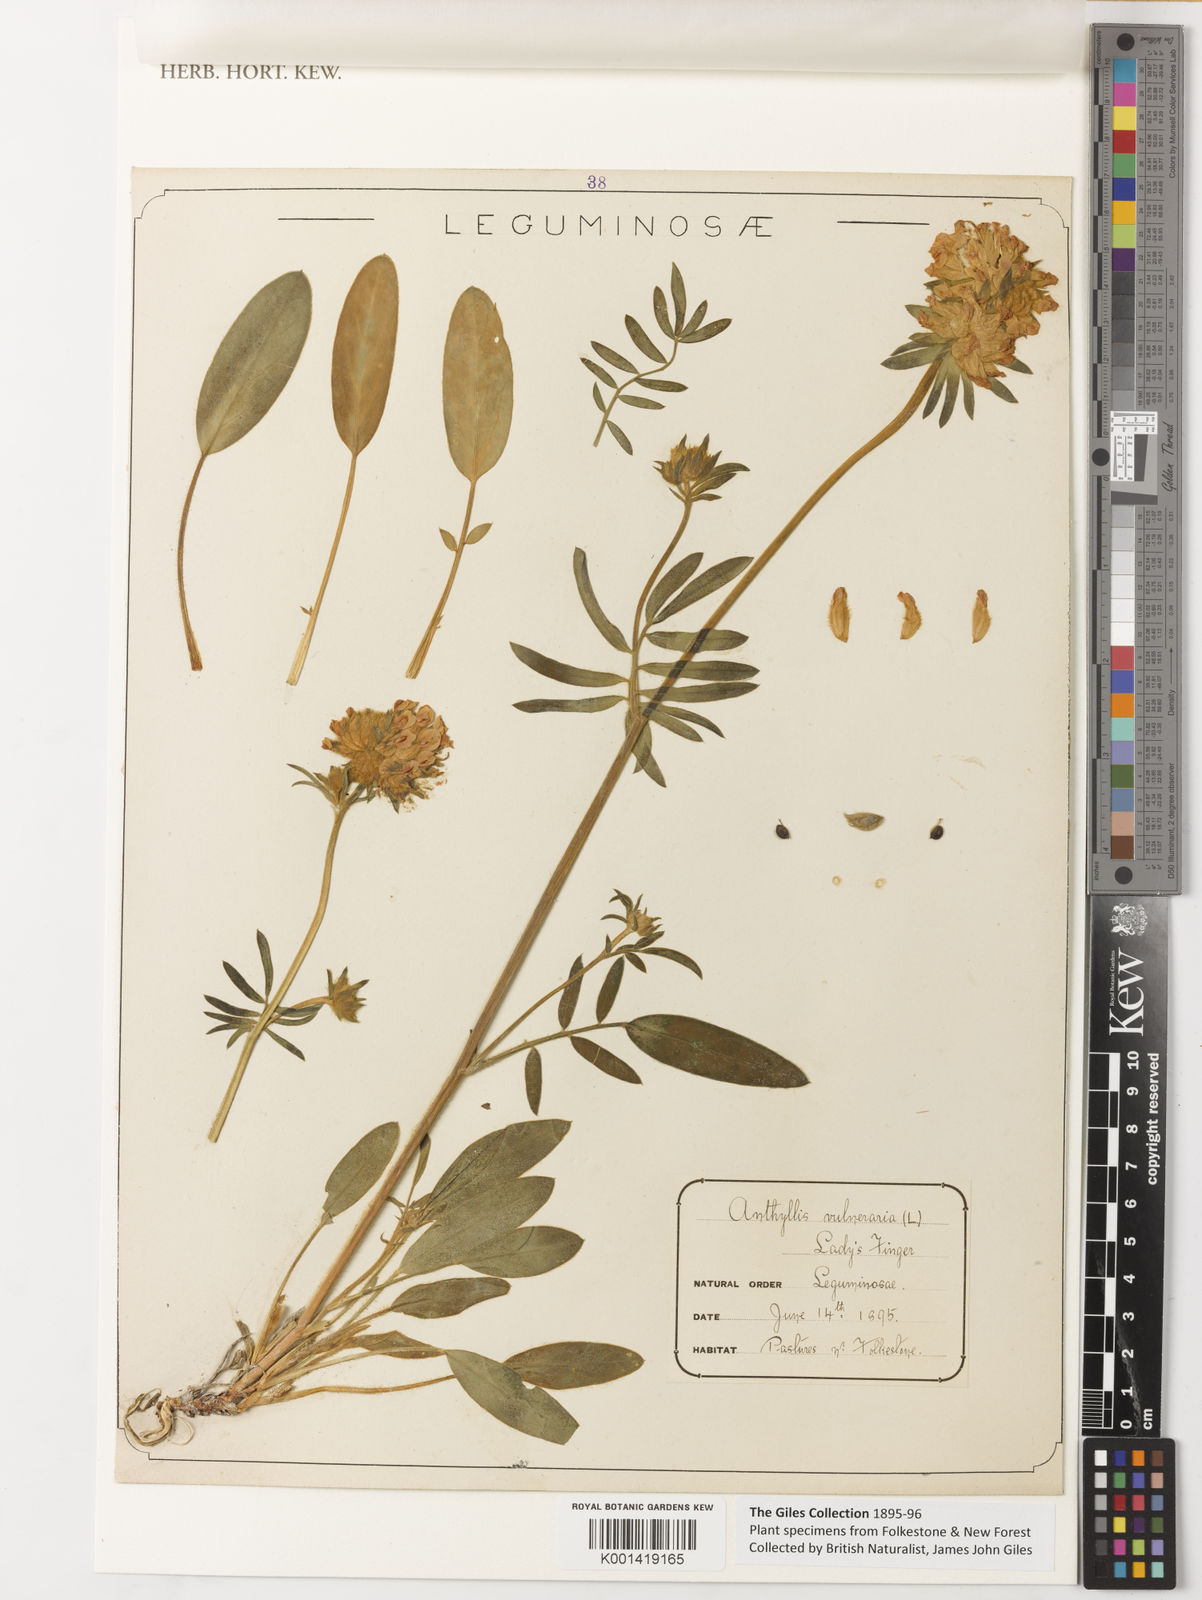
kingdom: Plantae
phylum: Tracheophyta
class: Magnoliopsida
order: Fabales
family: Fabaceae
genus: Anthyllis
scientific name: Anthyllis vulneraria
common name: Kidney vetch
